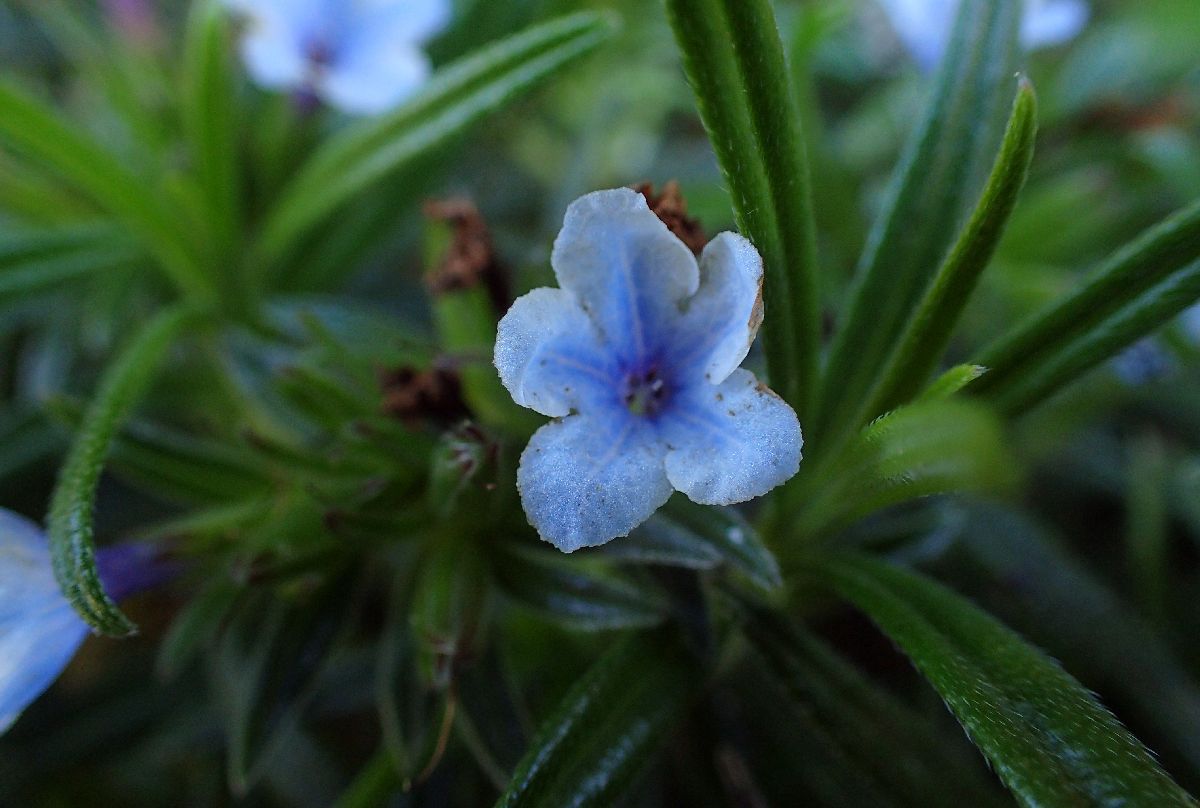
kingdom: Plantae
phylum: Tracheophyta
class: Magnoliopsida
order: Boraginales
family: Boraginaceae
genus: Lithodora
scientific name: Lithodora zahnii
